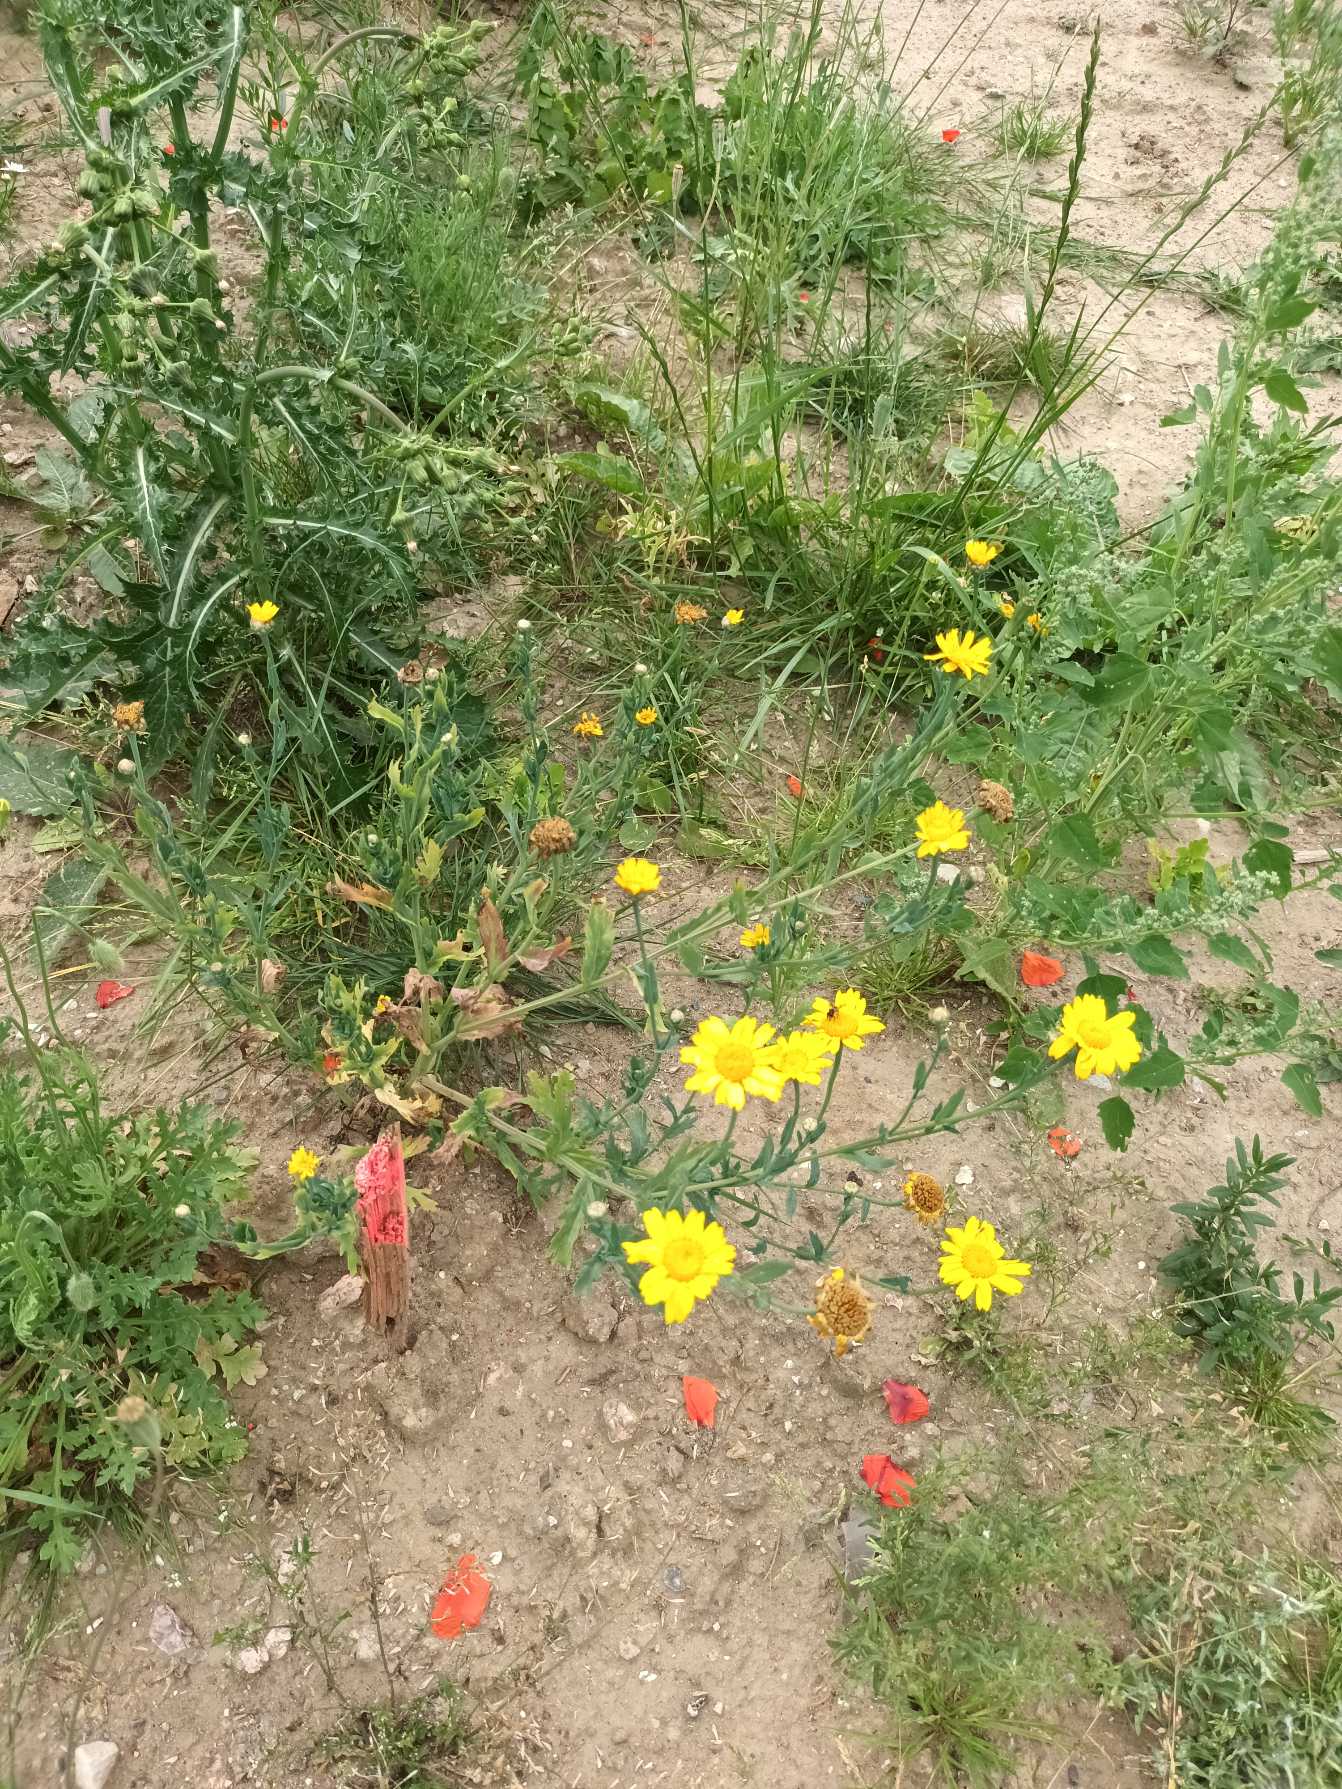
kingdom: Plantae
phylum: Tracheophyta
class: Magnoliopsida
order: Asterales
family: Asteraceae
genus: Glebionis
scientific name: Glebionis segetum
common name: Gul okseøje
